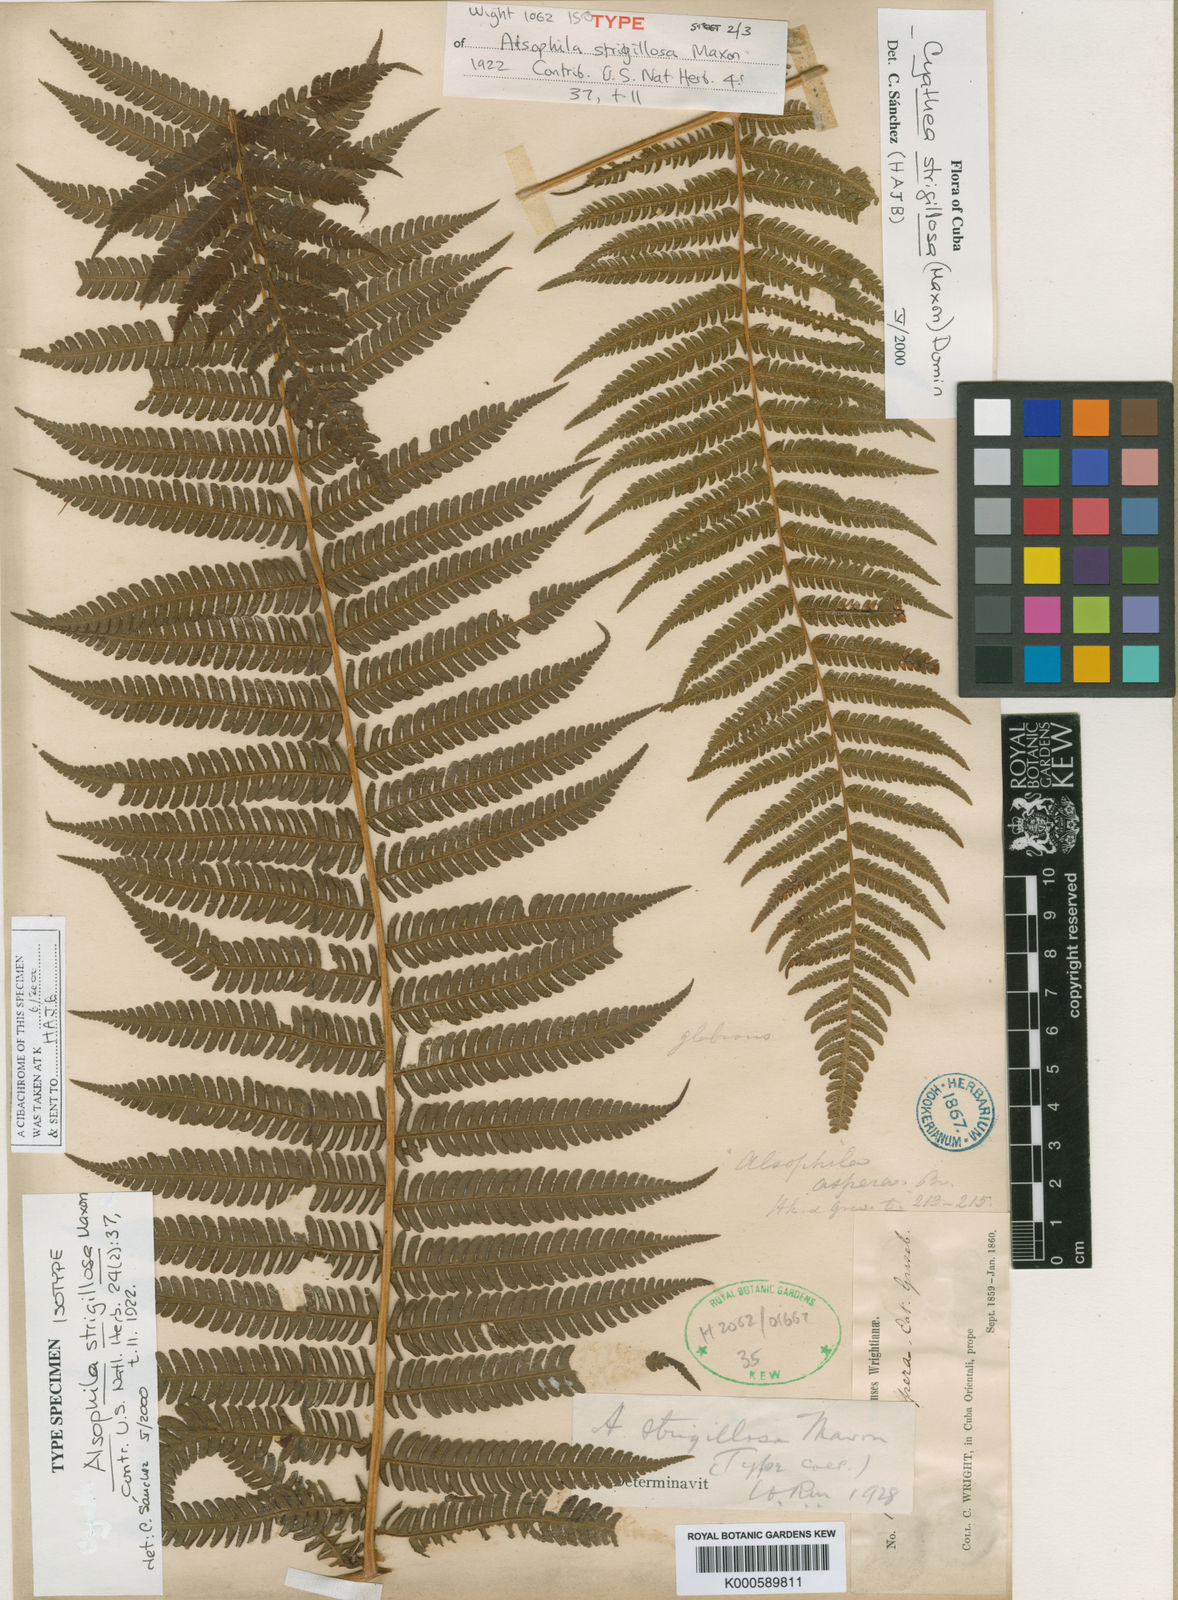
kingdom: Plantae
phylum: Tracheophyta
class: Polypodiopsida
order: Cyatheales
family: Cyatheaceae
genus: Cyathea
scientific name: Cyathea strigillosa
